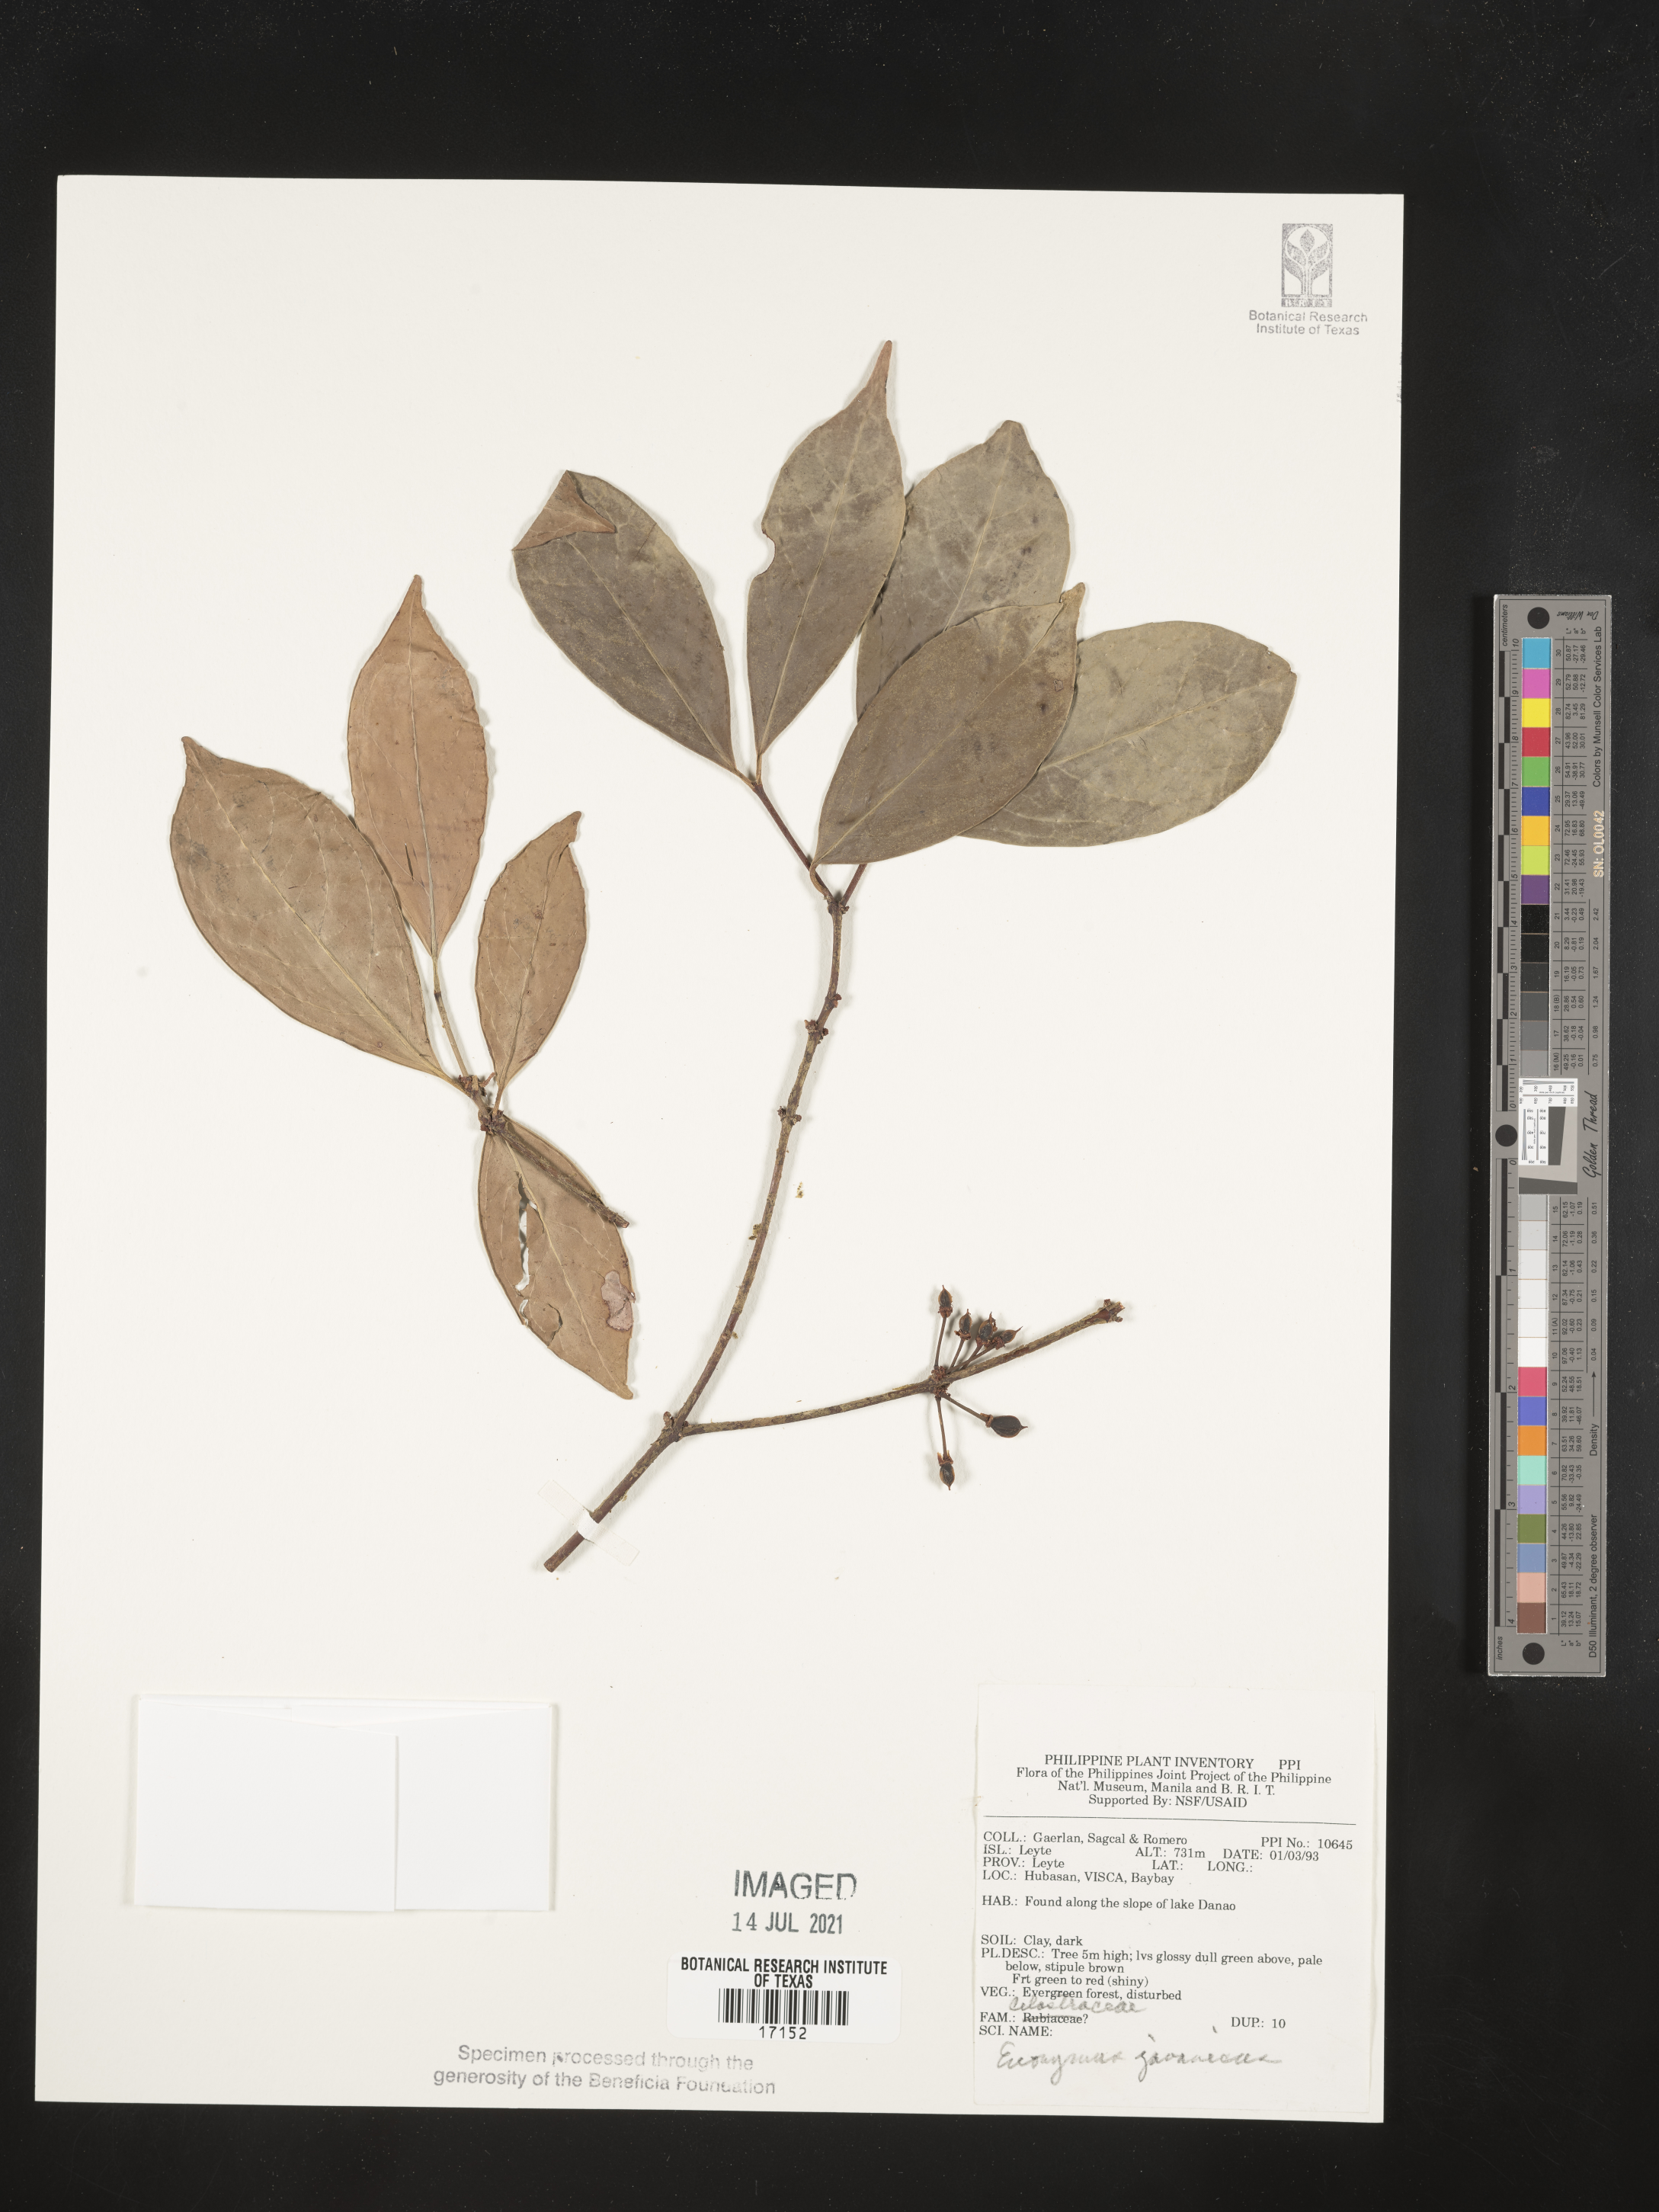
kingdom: Plantae
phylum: Tracheophyta
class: Magnoliopsida
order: Celastrales
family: Celastraceae
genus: Euonymus
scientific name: Euonymus indicus
